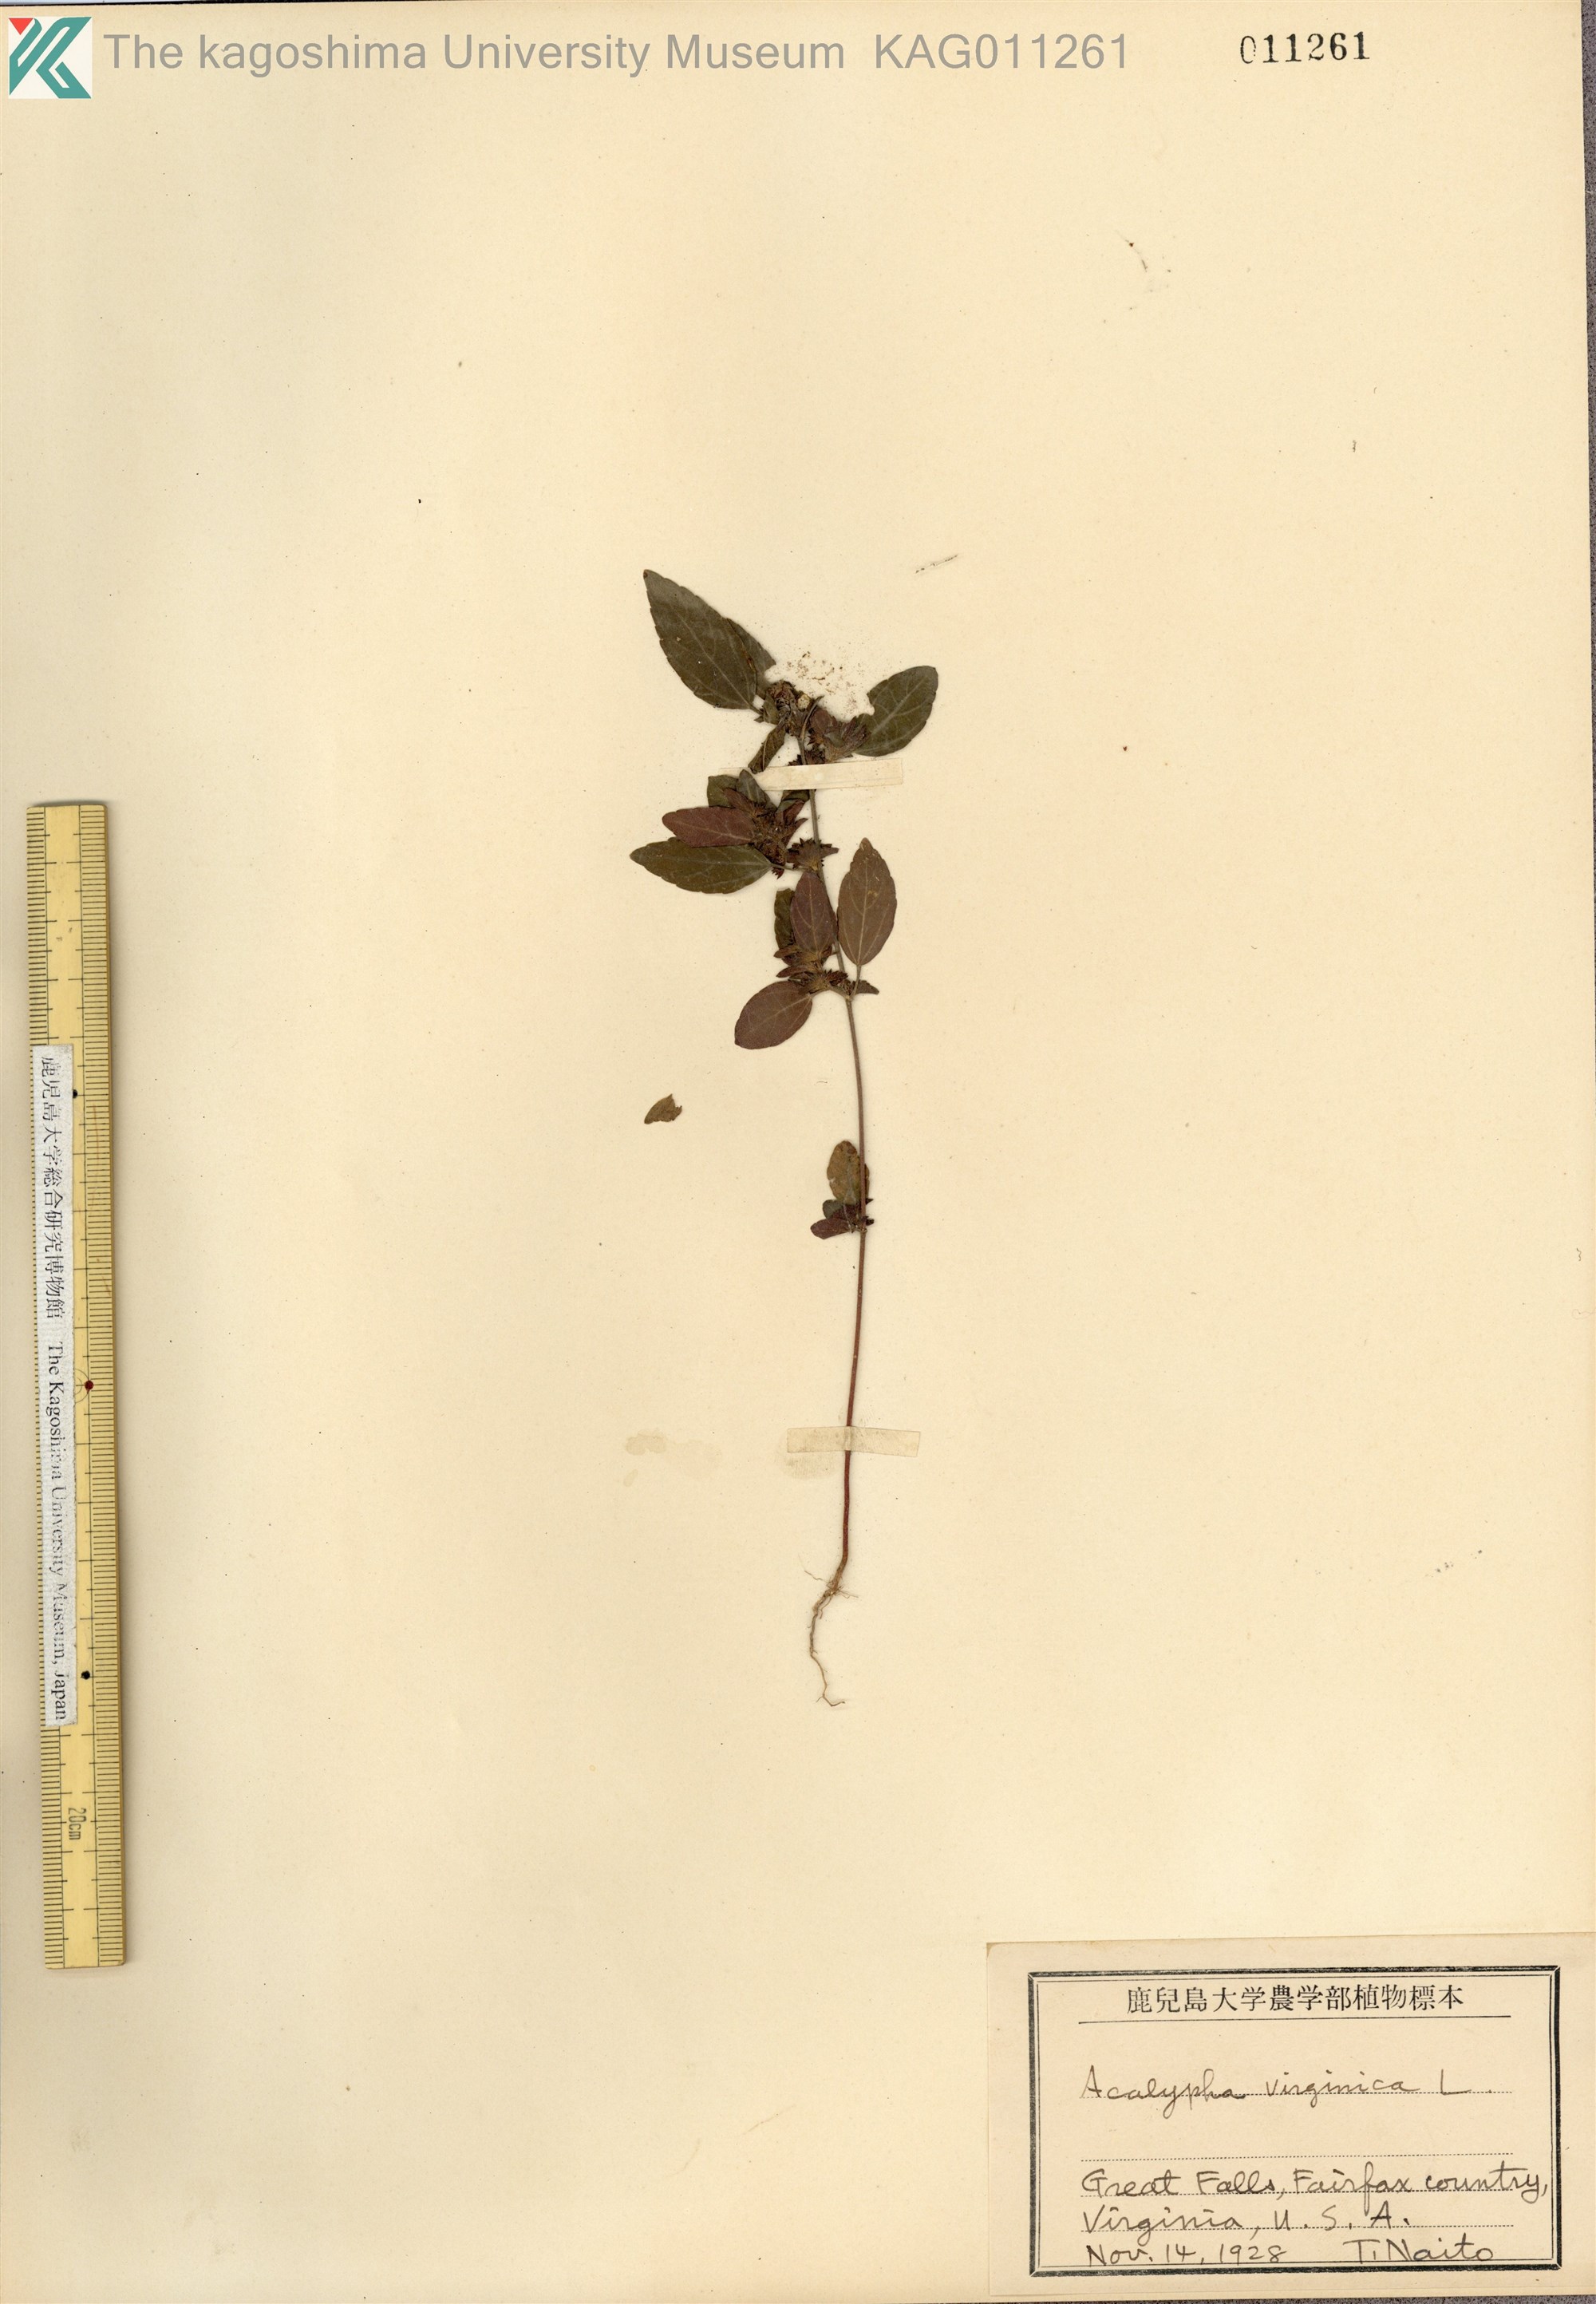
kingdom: Plantae
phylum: Tracheophyta
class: Magnoliopsida
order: Malpighiales
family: Euphorbiaceae
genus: Acalypha
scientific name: Acalypha virginica
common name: Virginia copperleaf
